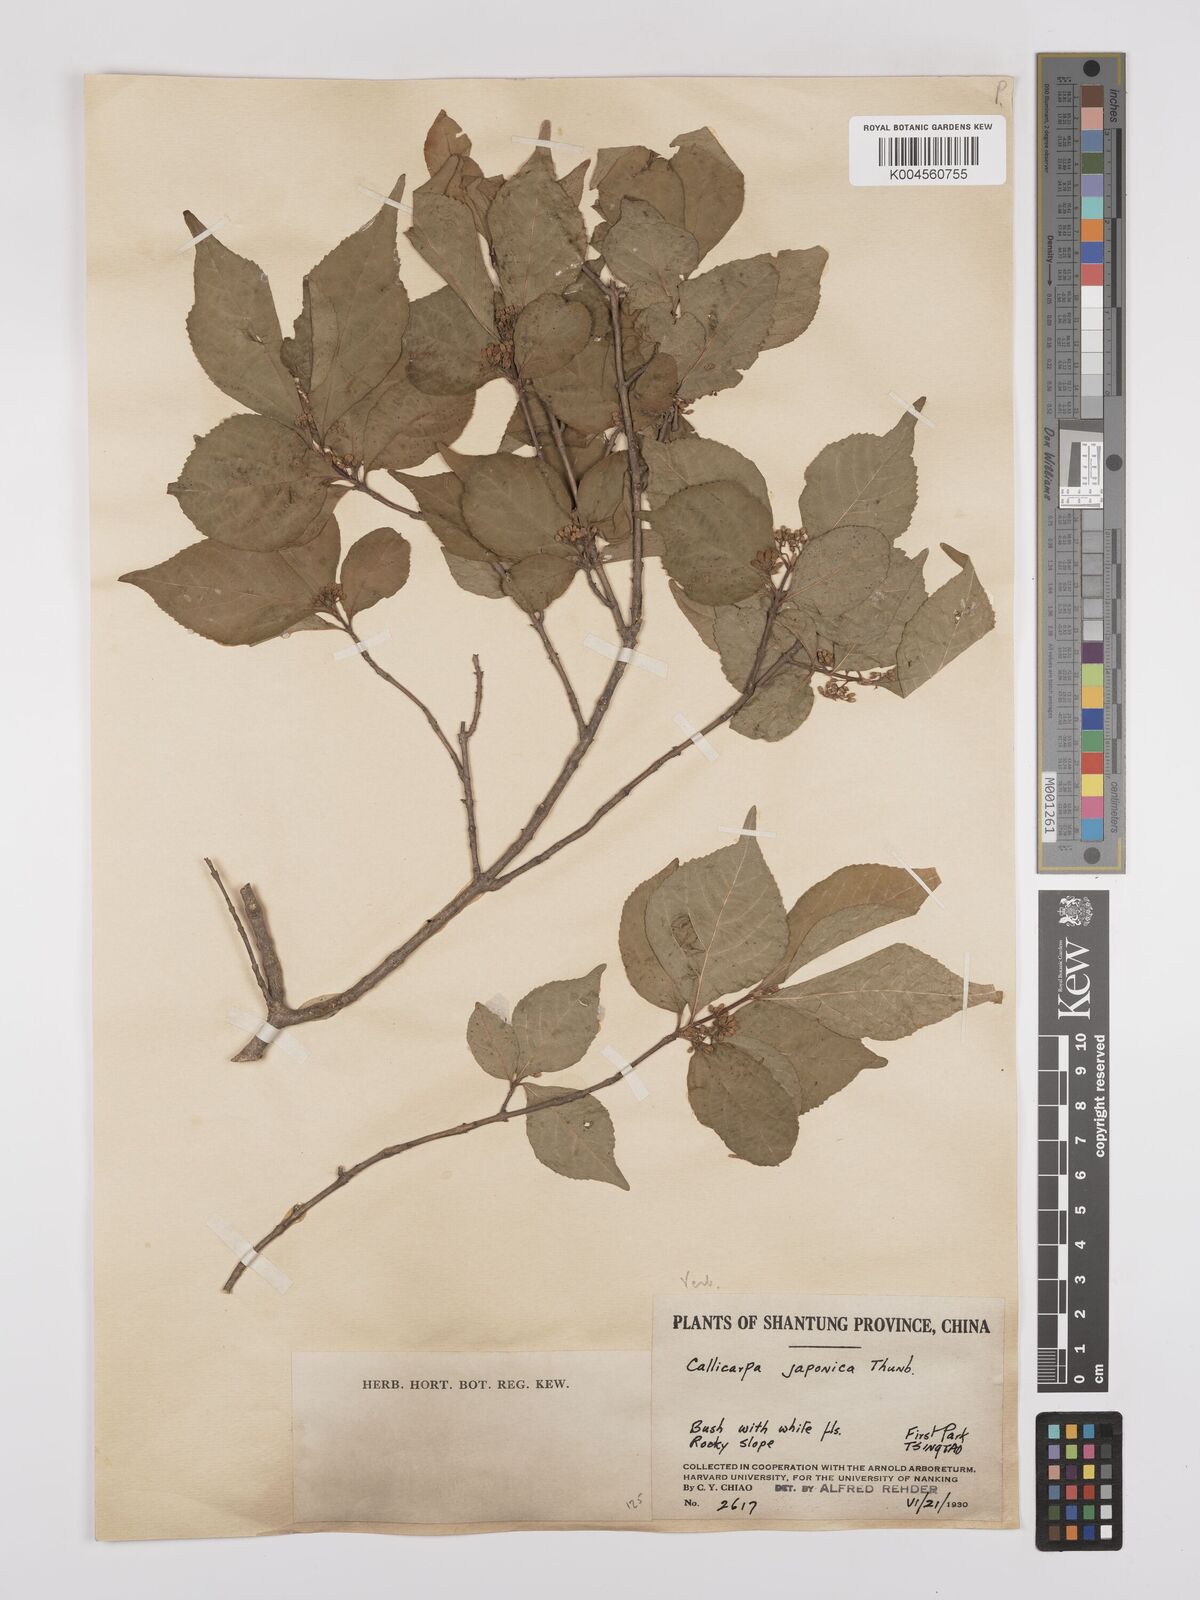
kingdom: Plantae
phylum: Tracheophyta
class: Magnoliopsida
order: Lamiales
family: Lamiaceae
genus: Callicarpa
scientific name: Callicarpa japonica
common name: Japanese beauty-berry
